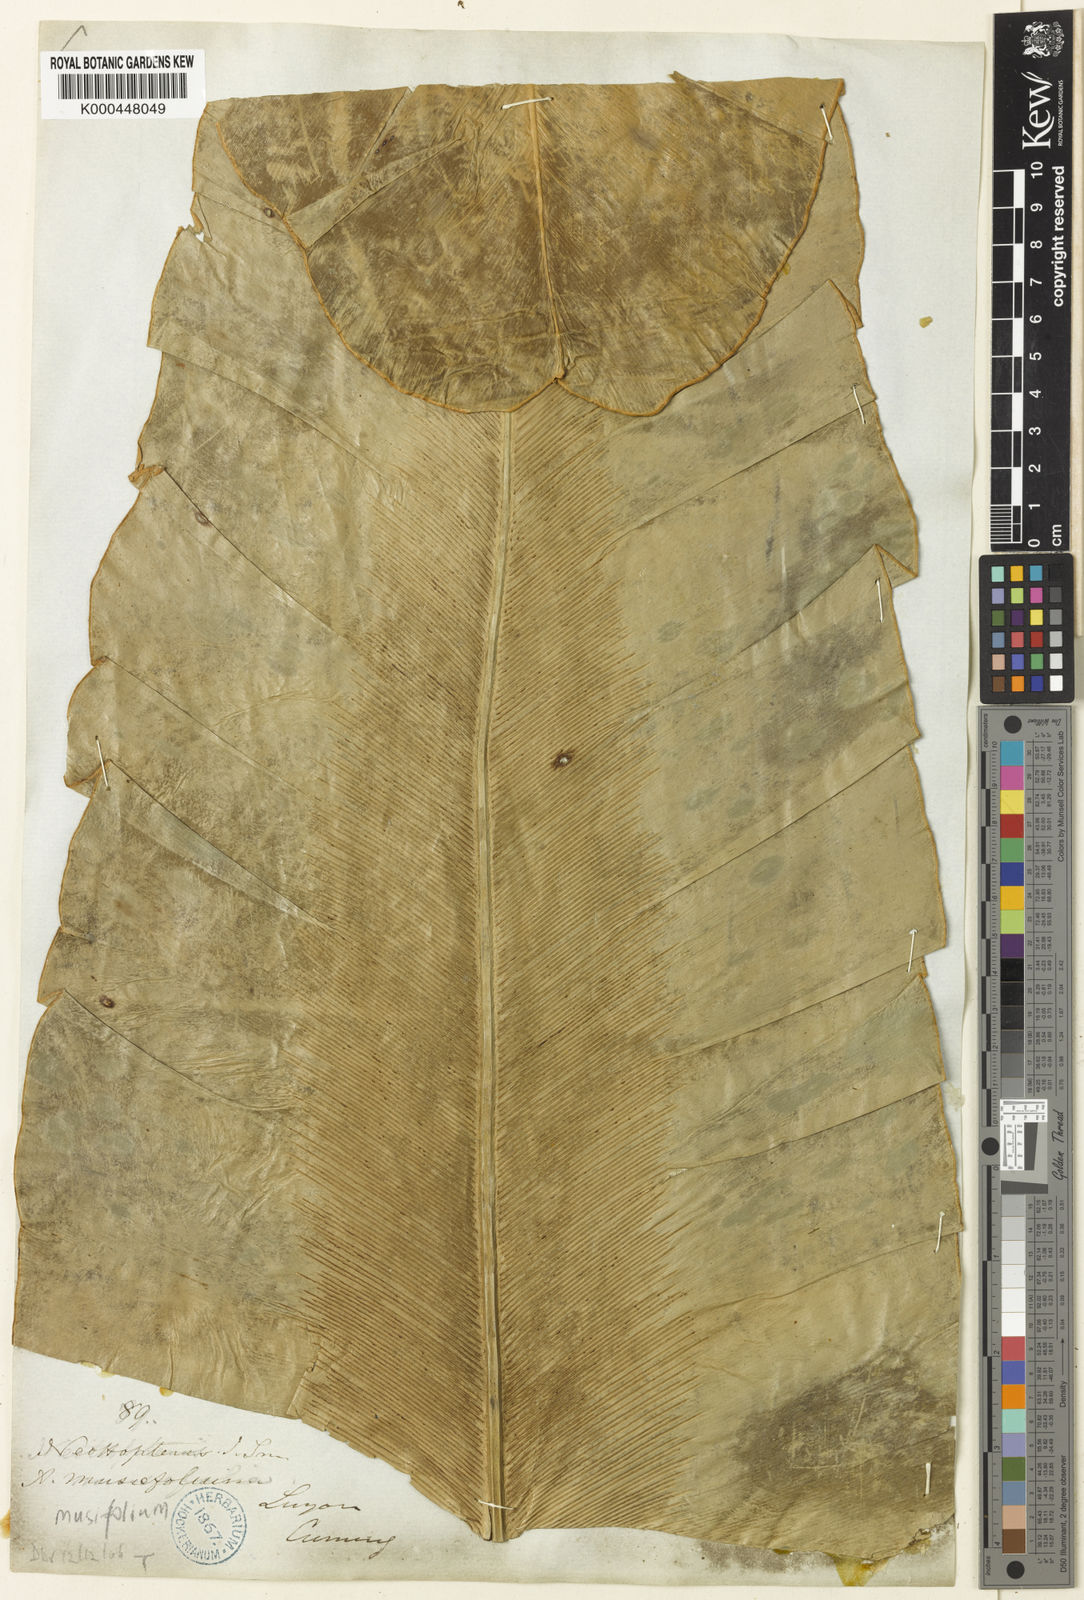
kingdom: Plantae
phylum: Tracheophyta
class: Polypodiopsida
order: Polypodiales
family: Aspleniaceae
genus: Asplenium
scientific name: Asplenium musifolium
